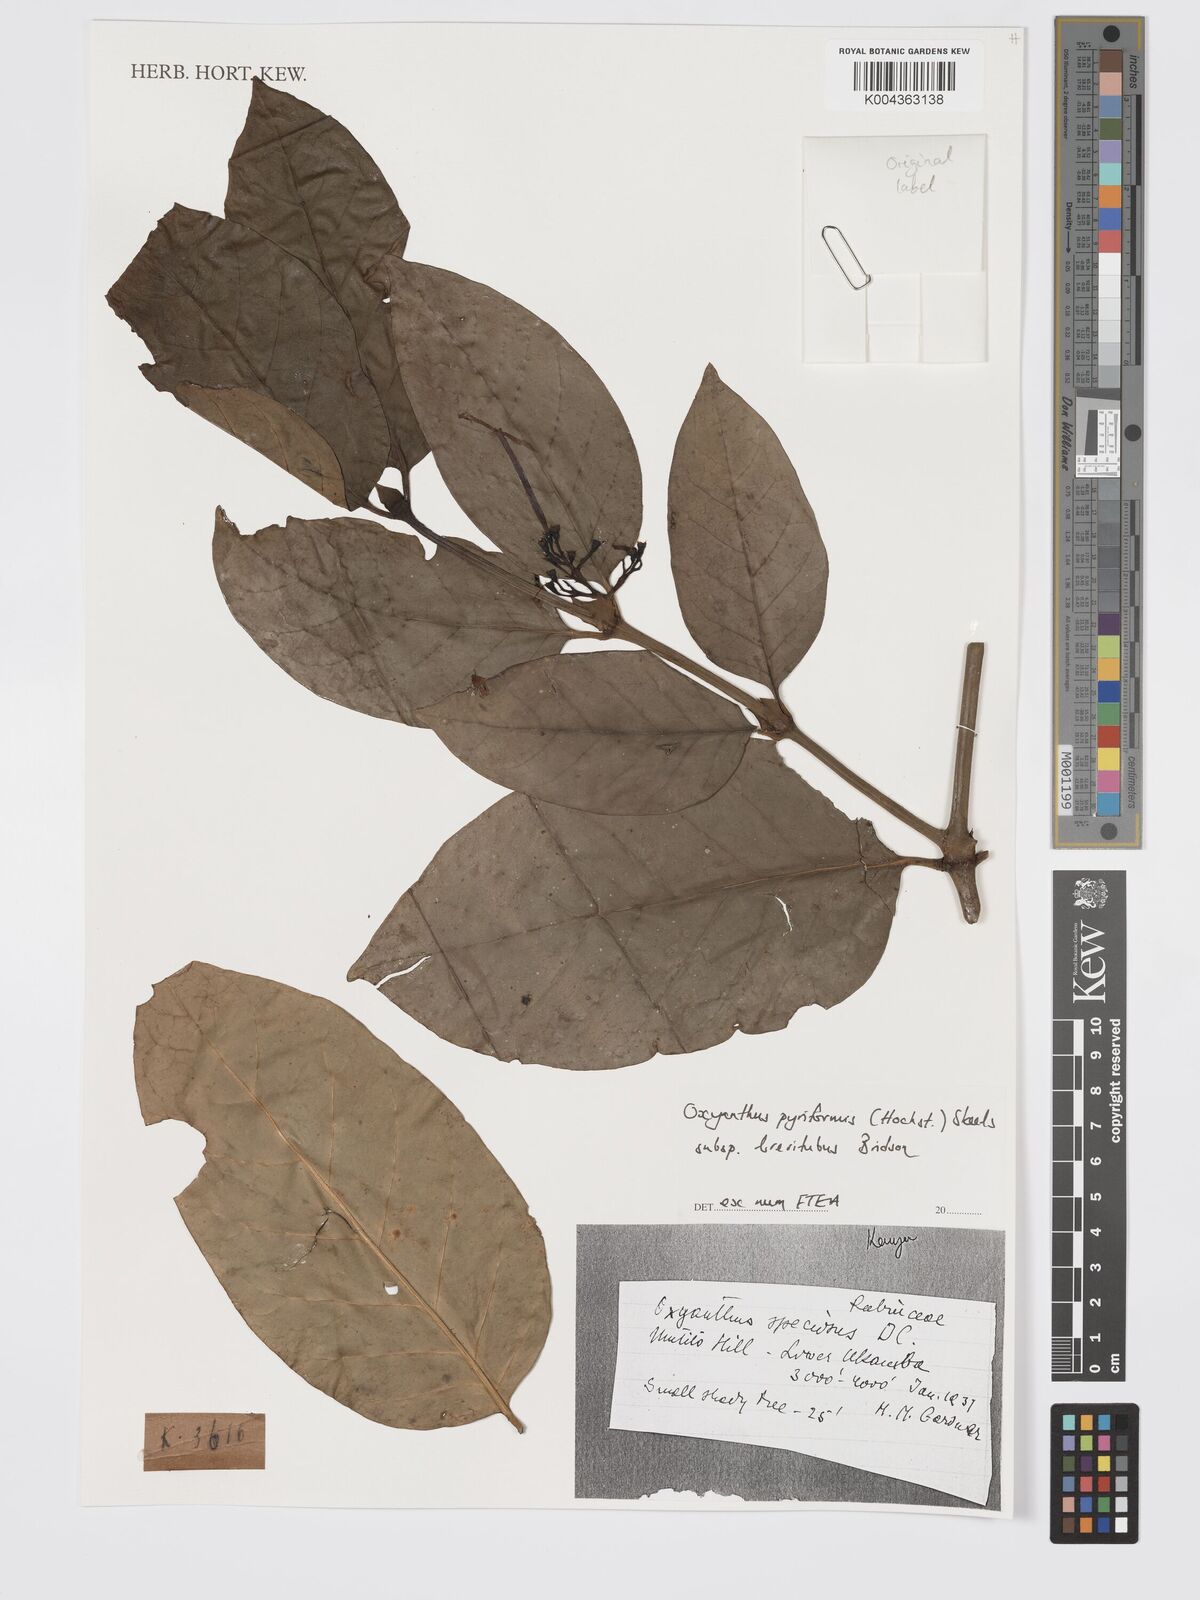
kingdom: Plantae
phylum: Tracheophyta
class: Magnoliopsida
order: Gentianales
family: Rubiaceae
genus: Oxyanthus
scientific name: Oxyanthus pyriformis
